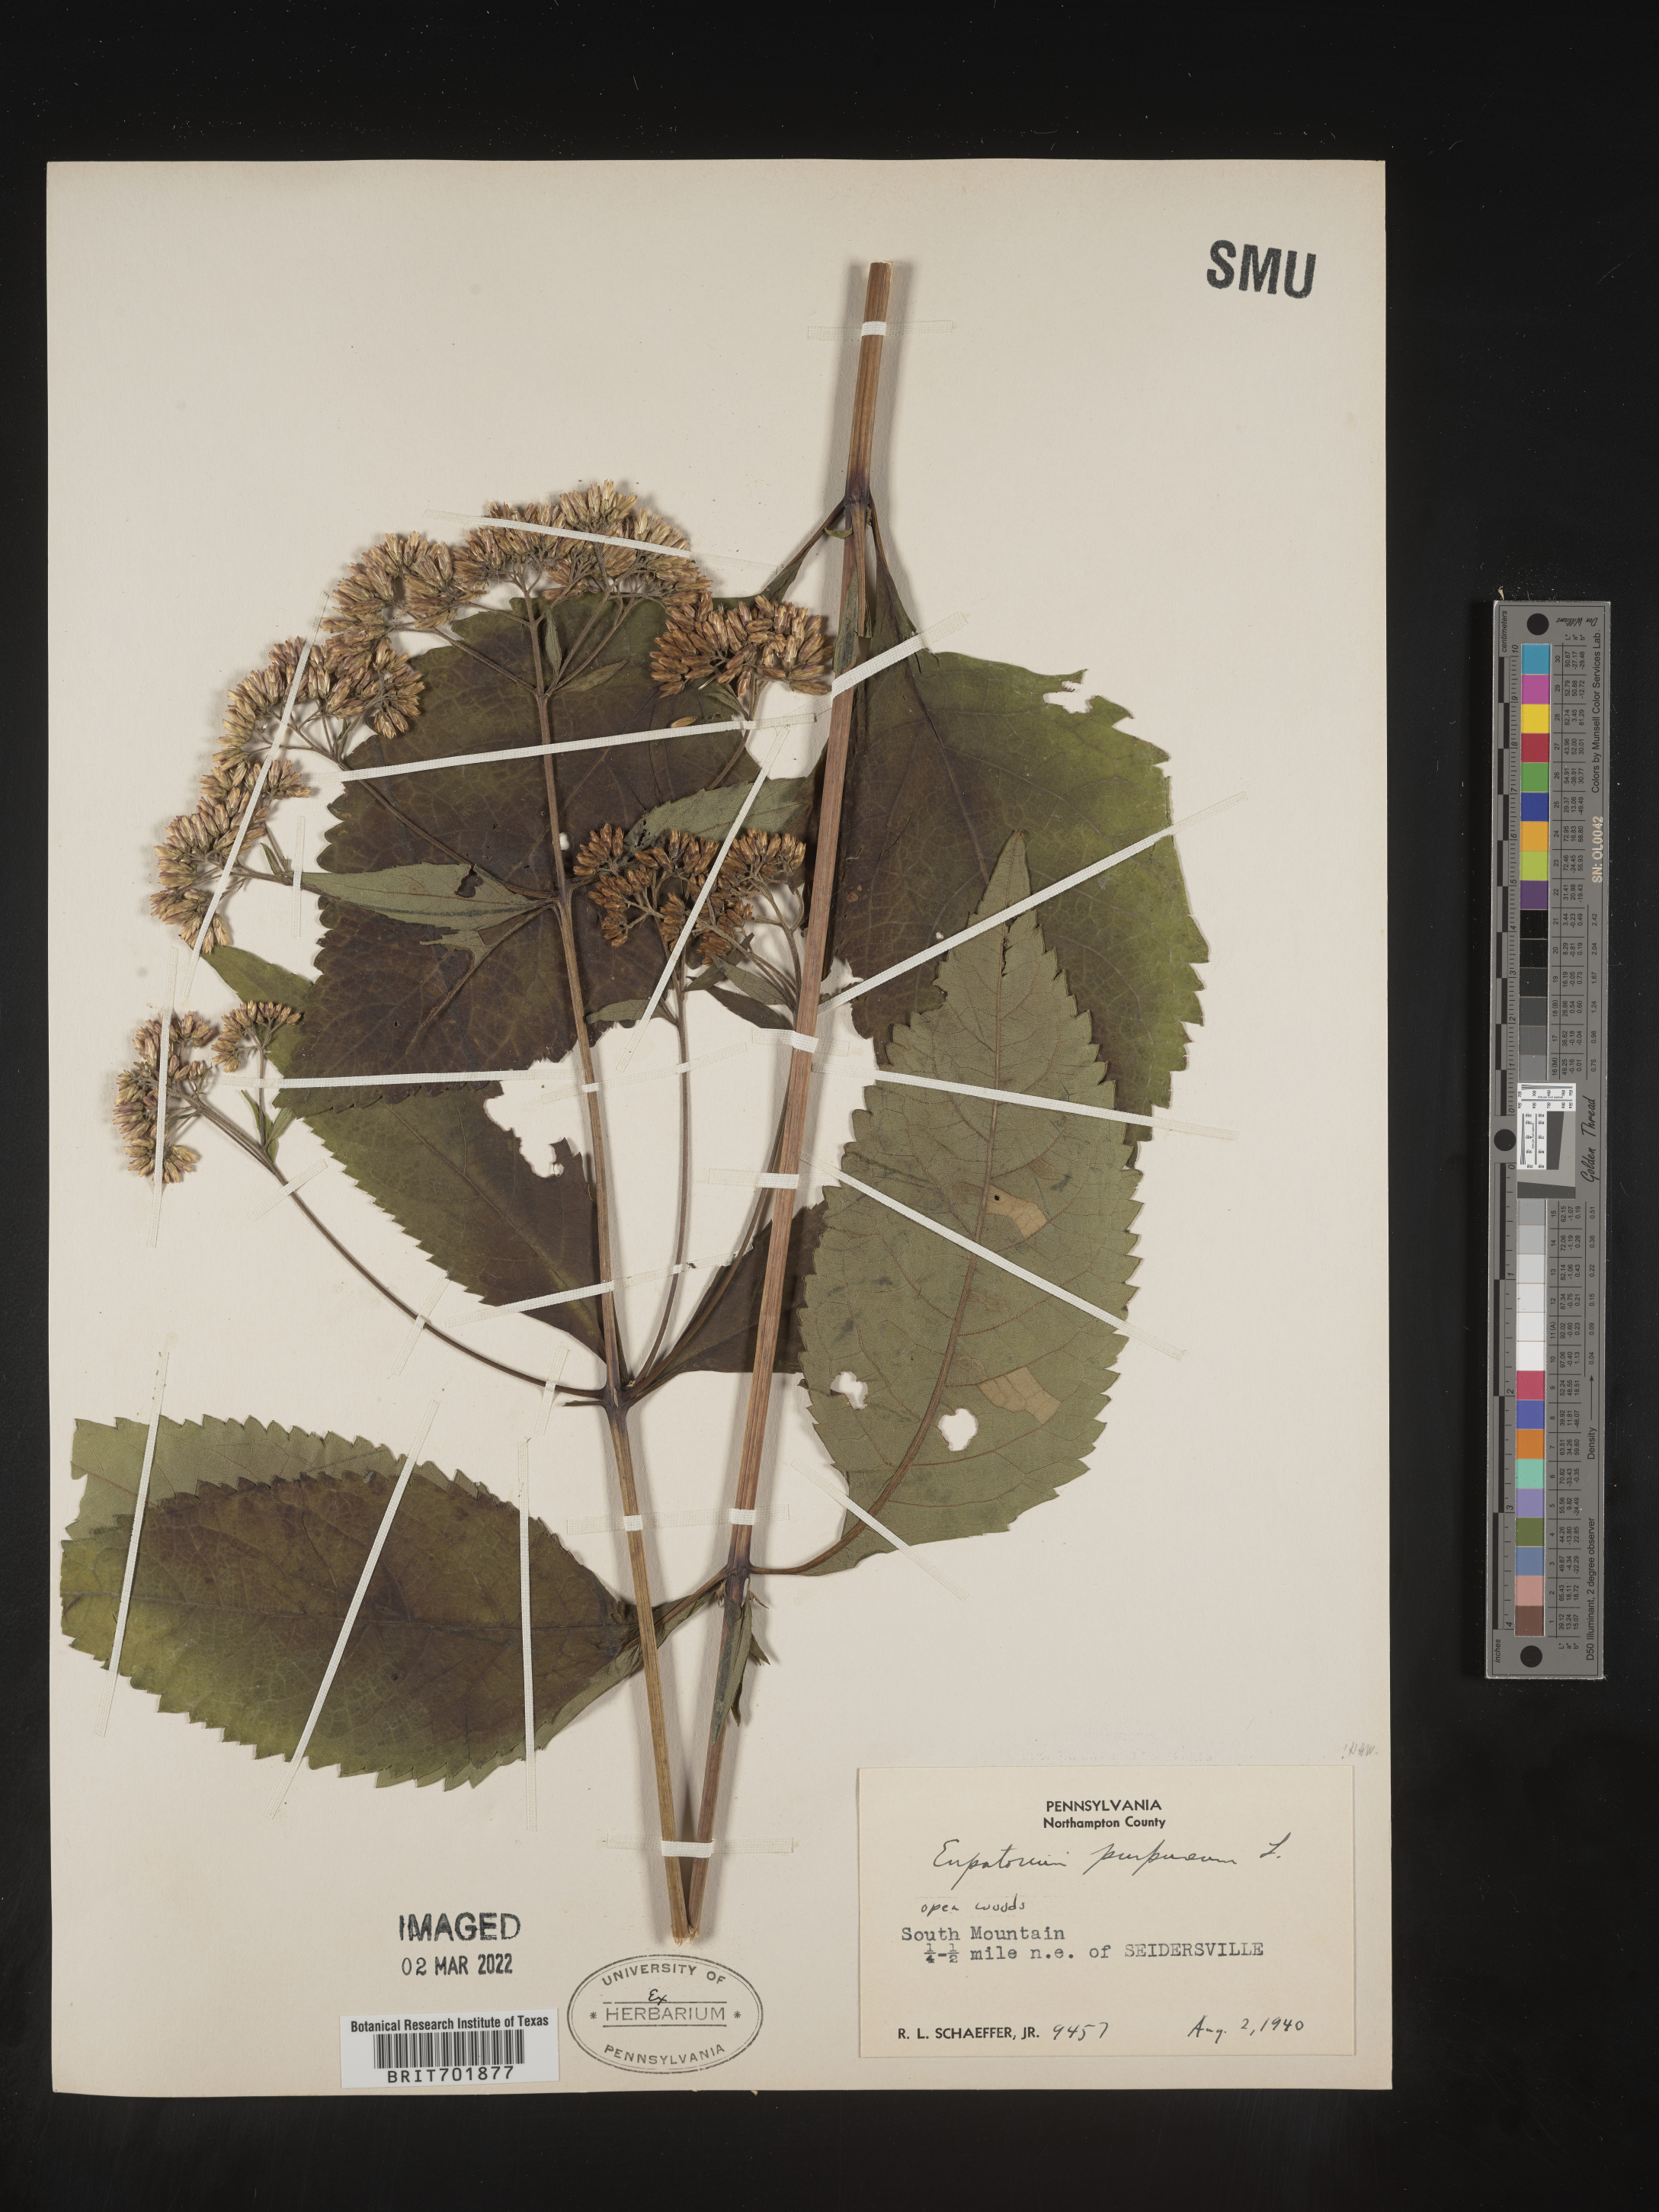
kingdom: Plantae
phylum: Tracheophyta
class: Magnoliopsida
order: Asterales
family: Asteraceae
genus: Eupatorium
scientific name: Eupatorium quaternum
